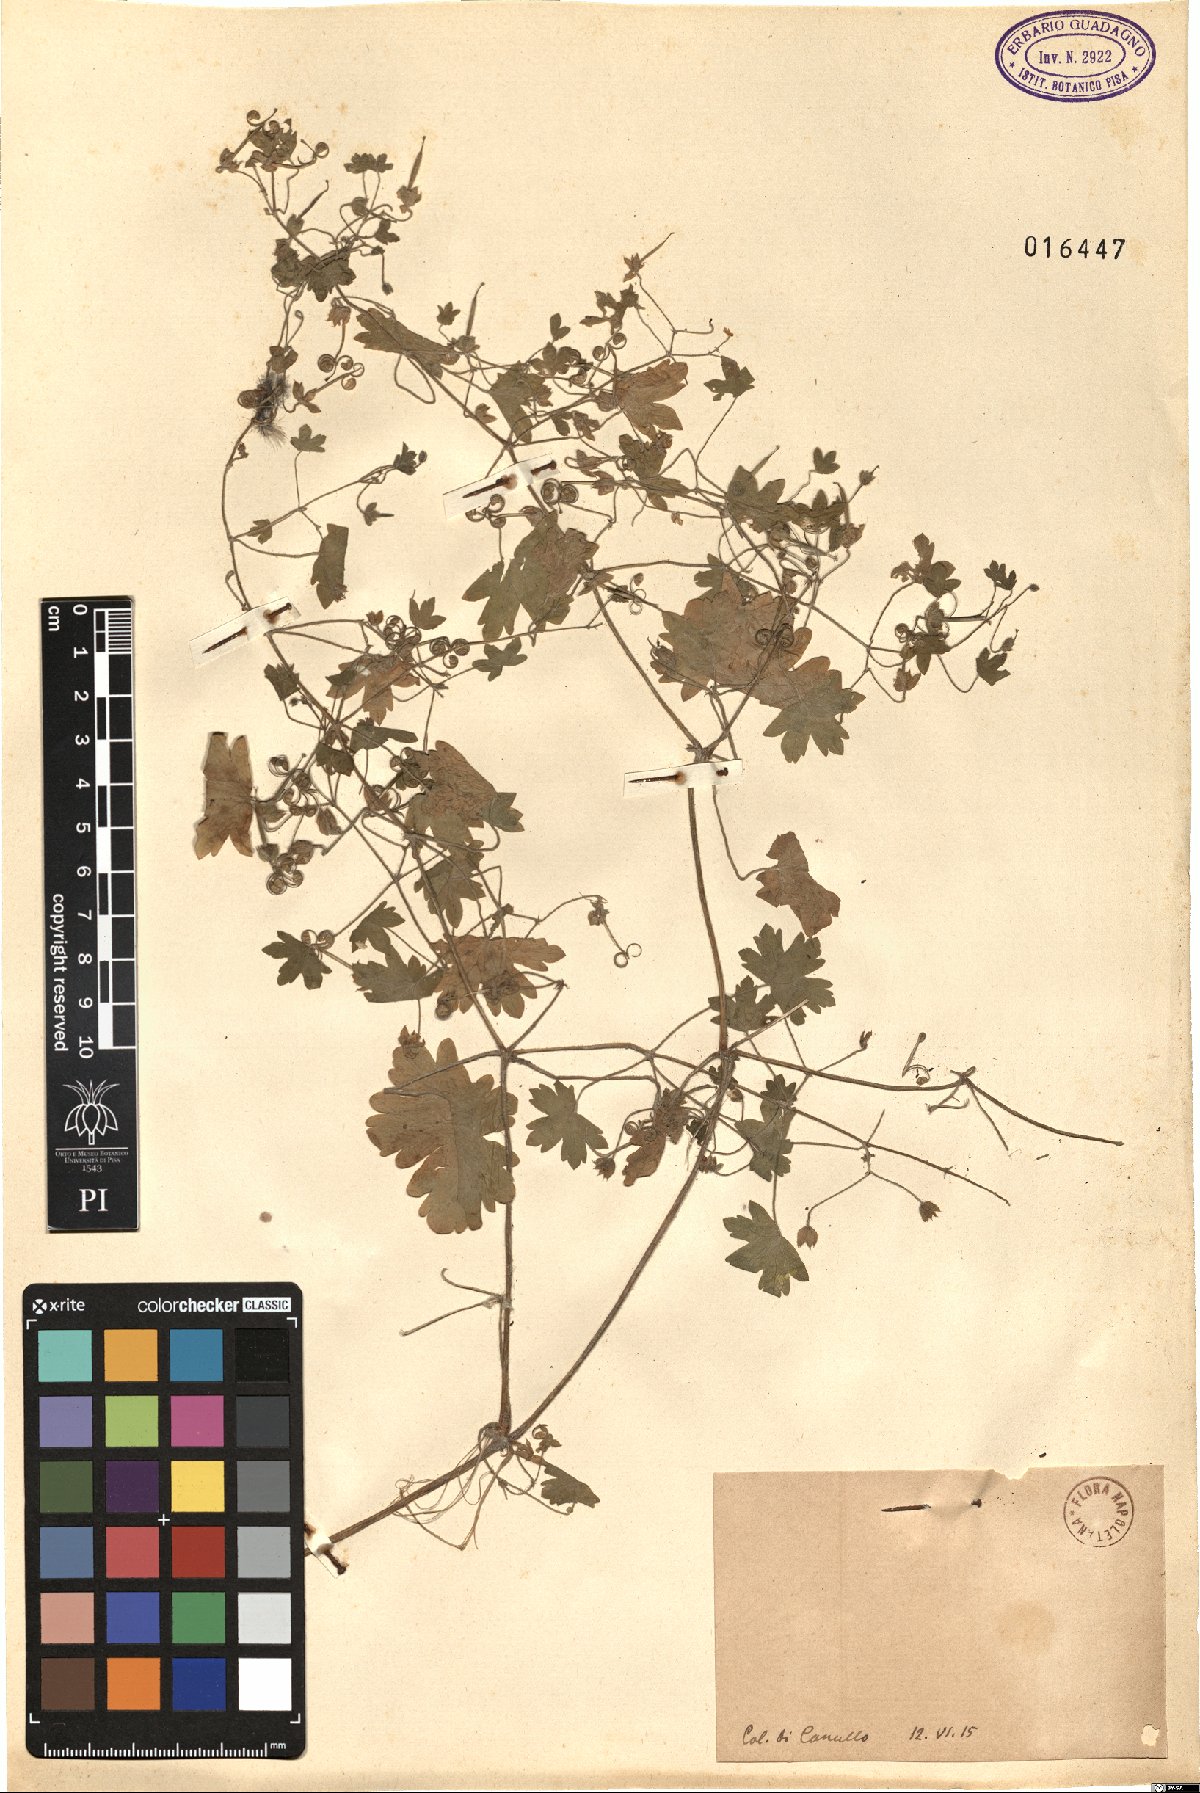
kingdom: Plantae
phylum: Tracheophyta
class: Magnoliopsida
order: Geraniales
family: Geraniaceae
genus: Geranium
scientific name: Geranium
